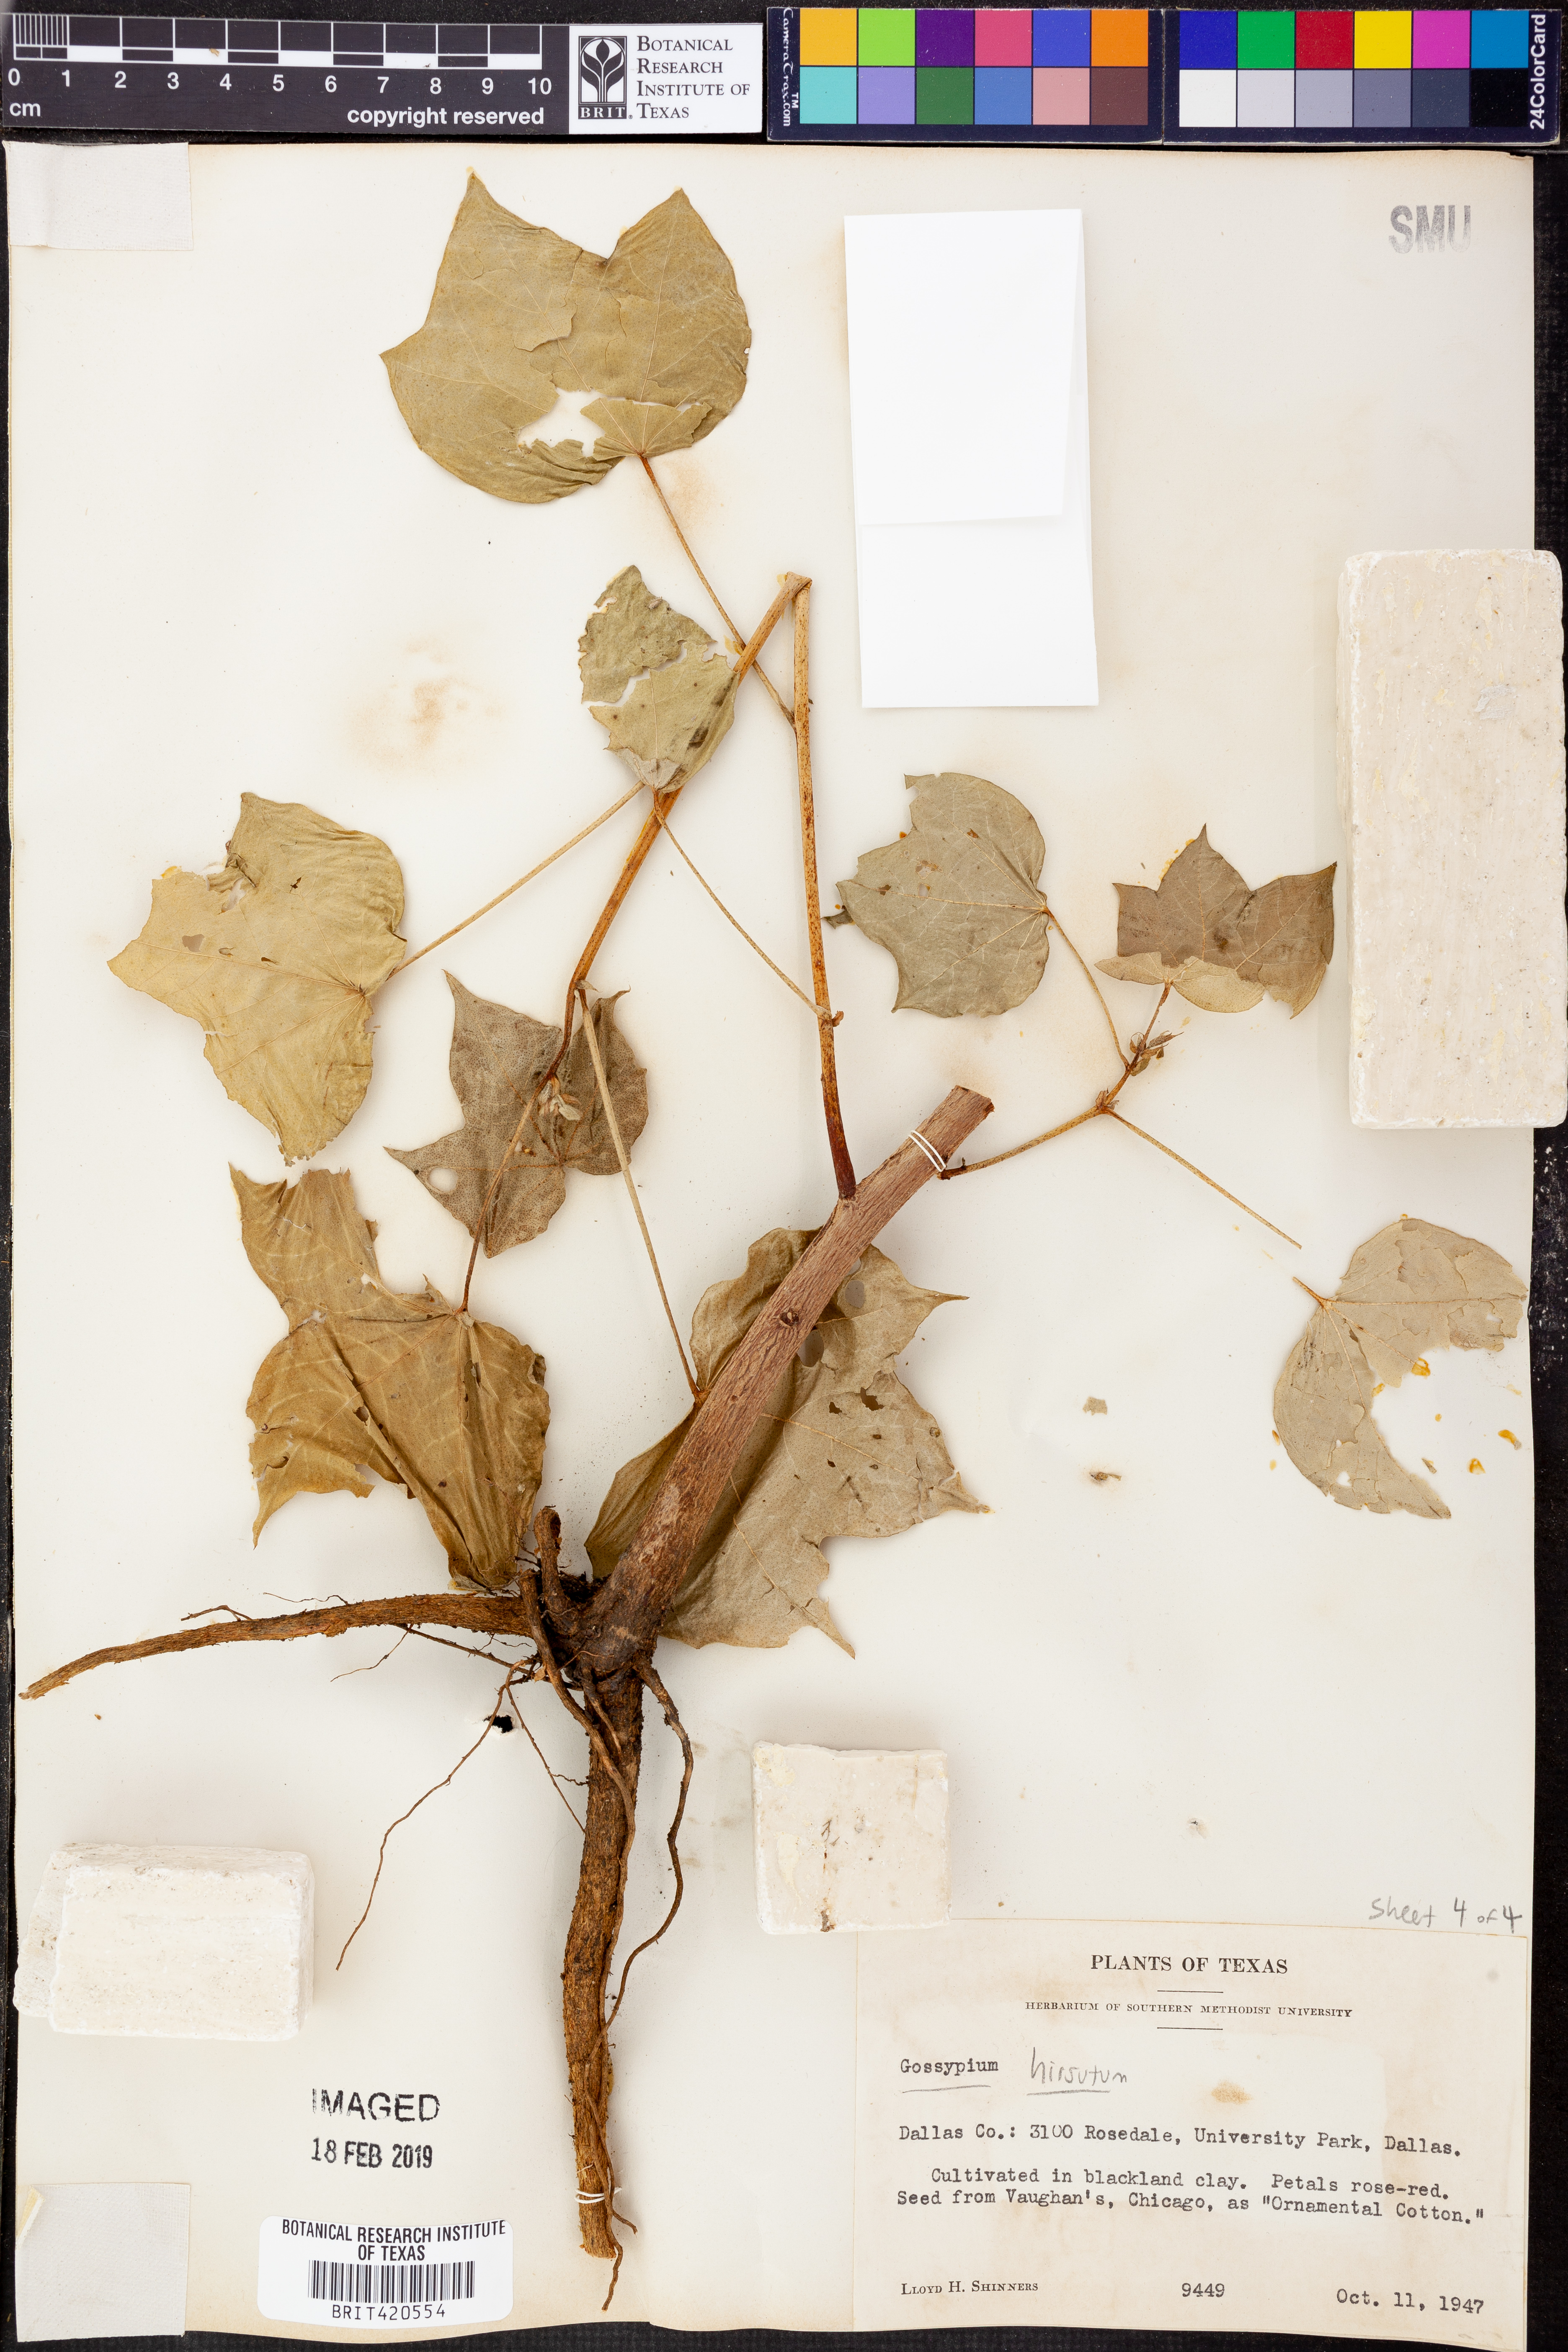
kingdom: Plantae
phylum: Tracheophyta
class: Magnoliopsida
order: Malvales
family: Malvaceae
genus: Gossypium
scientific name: Gossypium hirsutum
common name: Cotton
